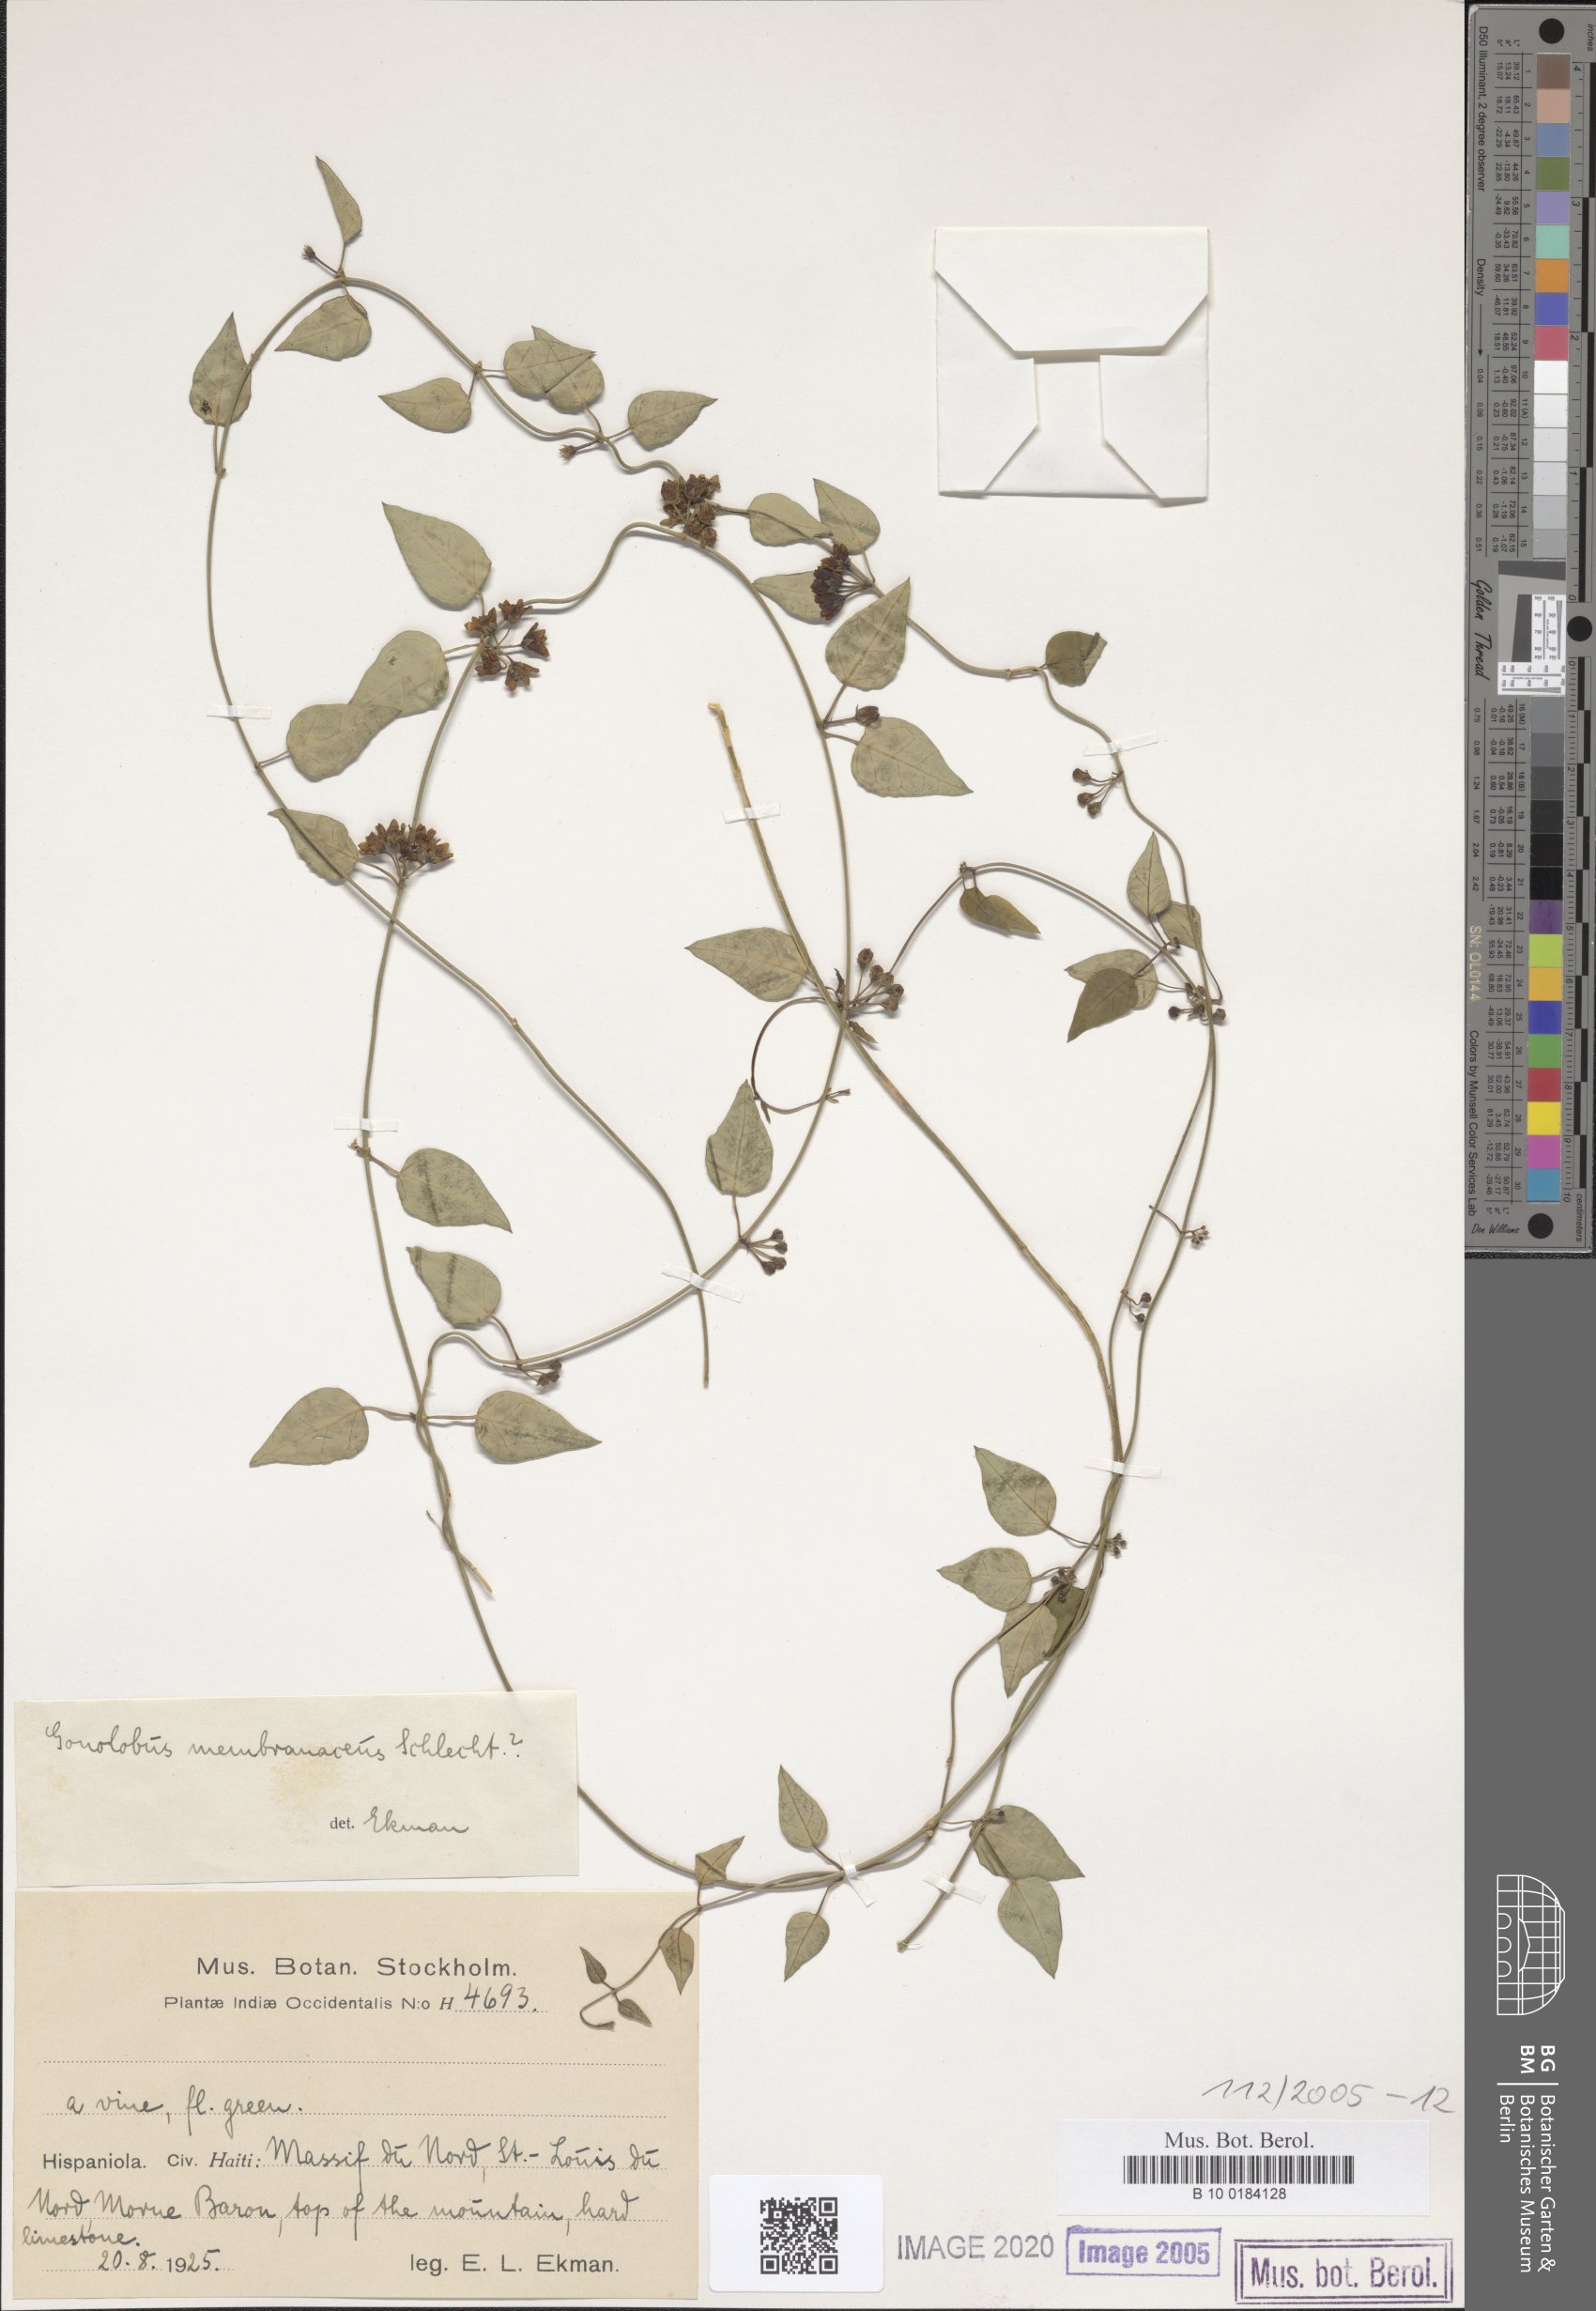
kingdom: Plantae
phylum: Tracheophyta
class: Magnoliopsida
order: Gentianales
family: Apocynaceae
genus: Ptycanthera
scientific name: Ptycanthera berteroi
